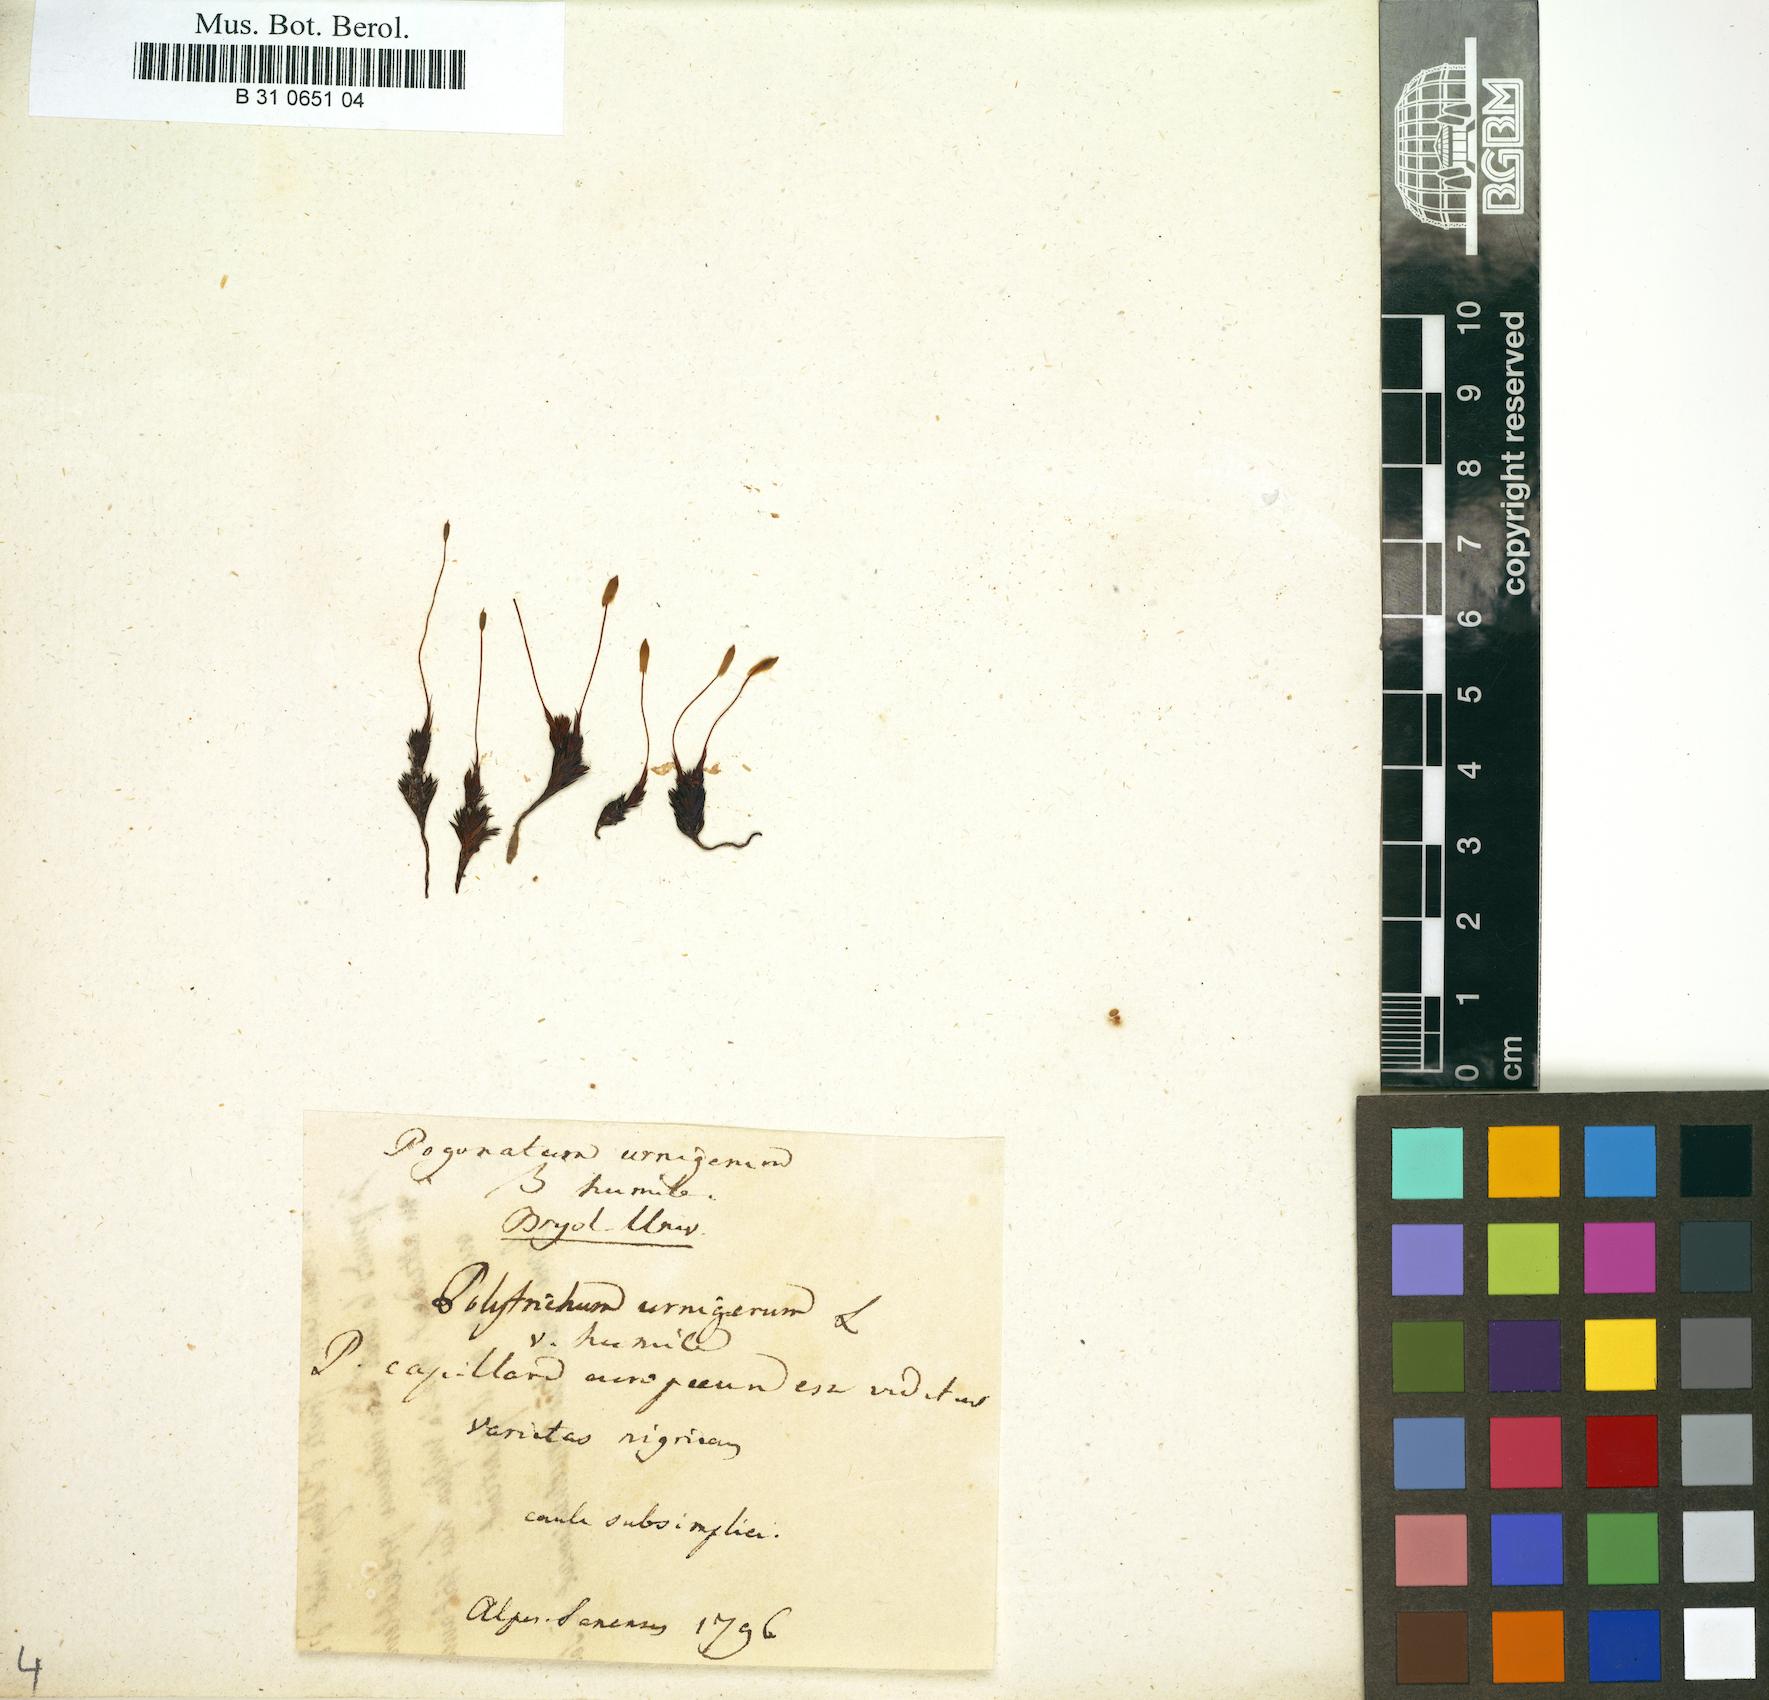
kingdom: Plantae
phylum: Bryophyta
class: Polytrichopsida
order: Polytrichales
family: Polytrichaceae
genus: Pogonatum
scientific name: Pogonatum
